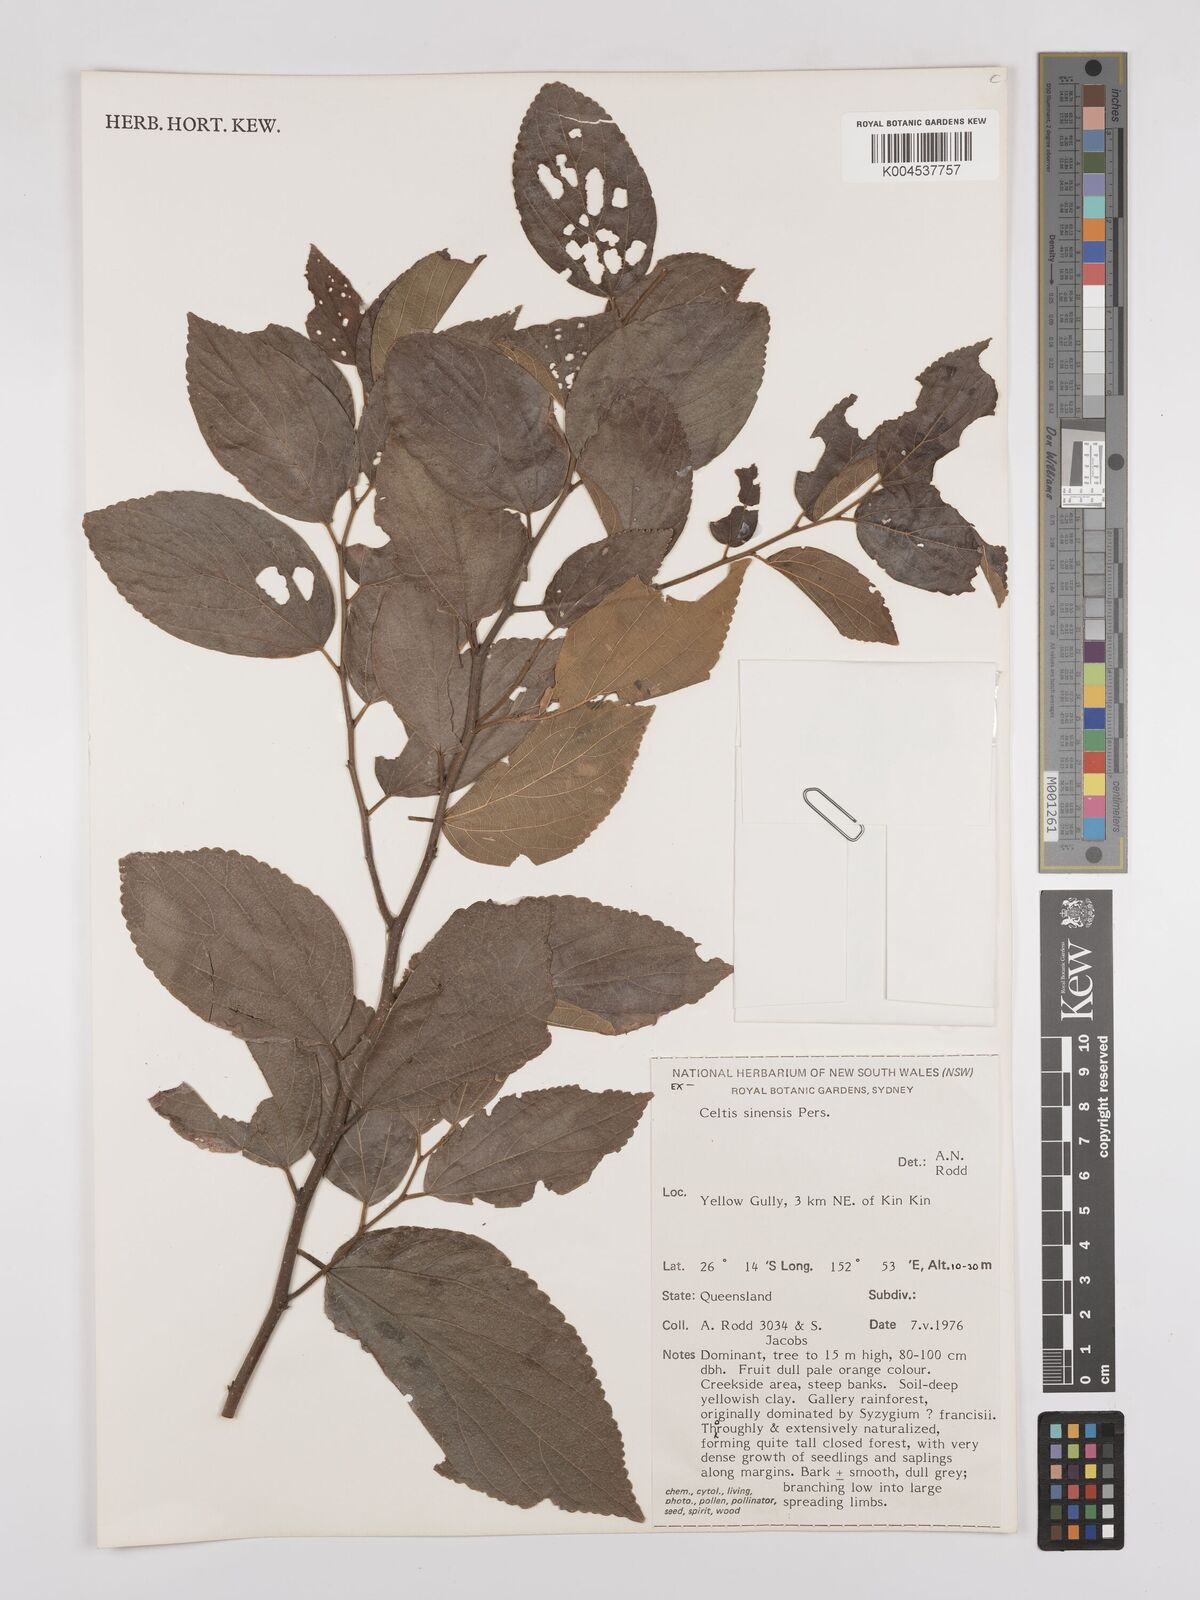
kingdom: Plantae
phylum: Tracheophyta
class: Magnoliopsida
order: Rosales
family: Cannabaceae
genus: Celtis
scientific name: Celtis
